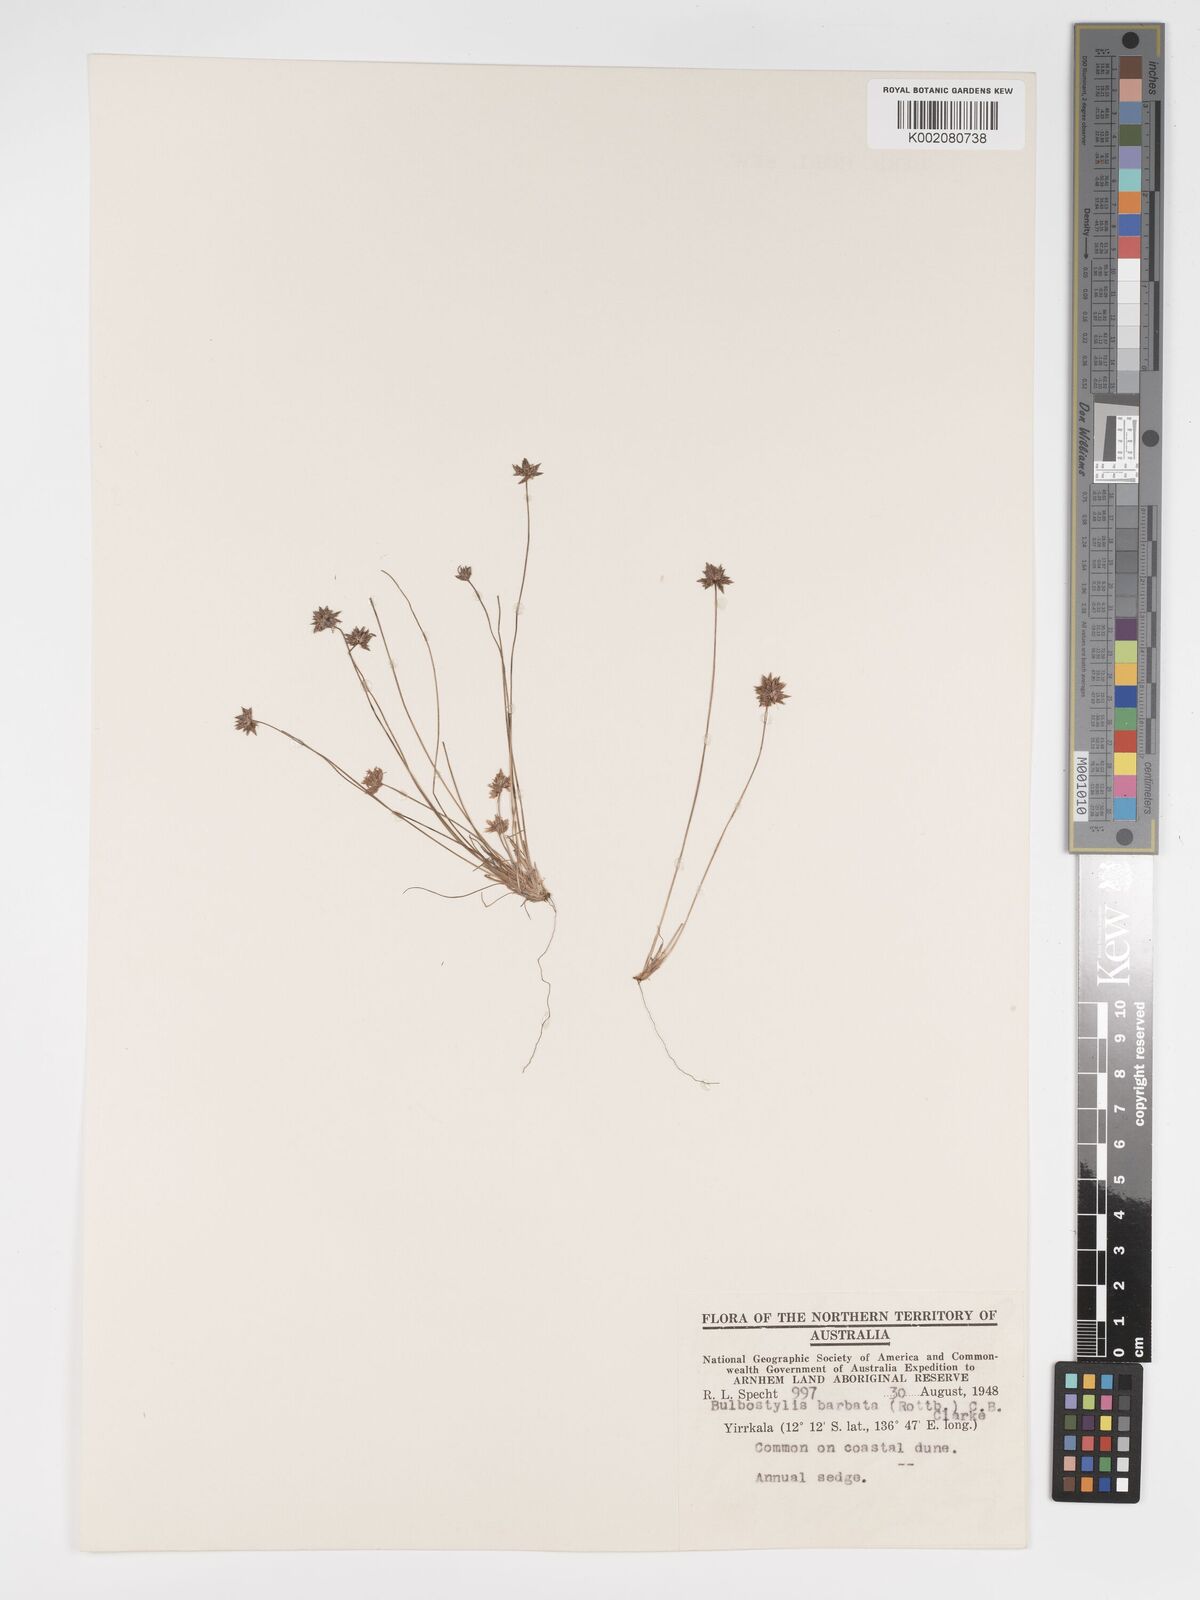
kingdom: Plantae
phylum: Tracheophyta
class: Liliopsida
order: Poales
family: Cyperaceae
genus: Bulbostylis
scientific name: Bulbostylis barbata
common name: Watergrass
